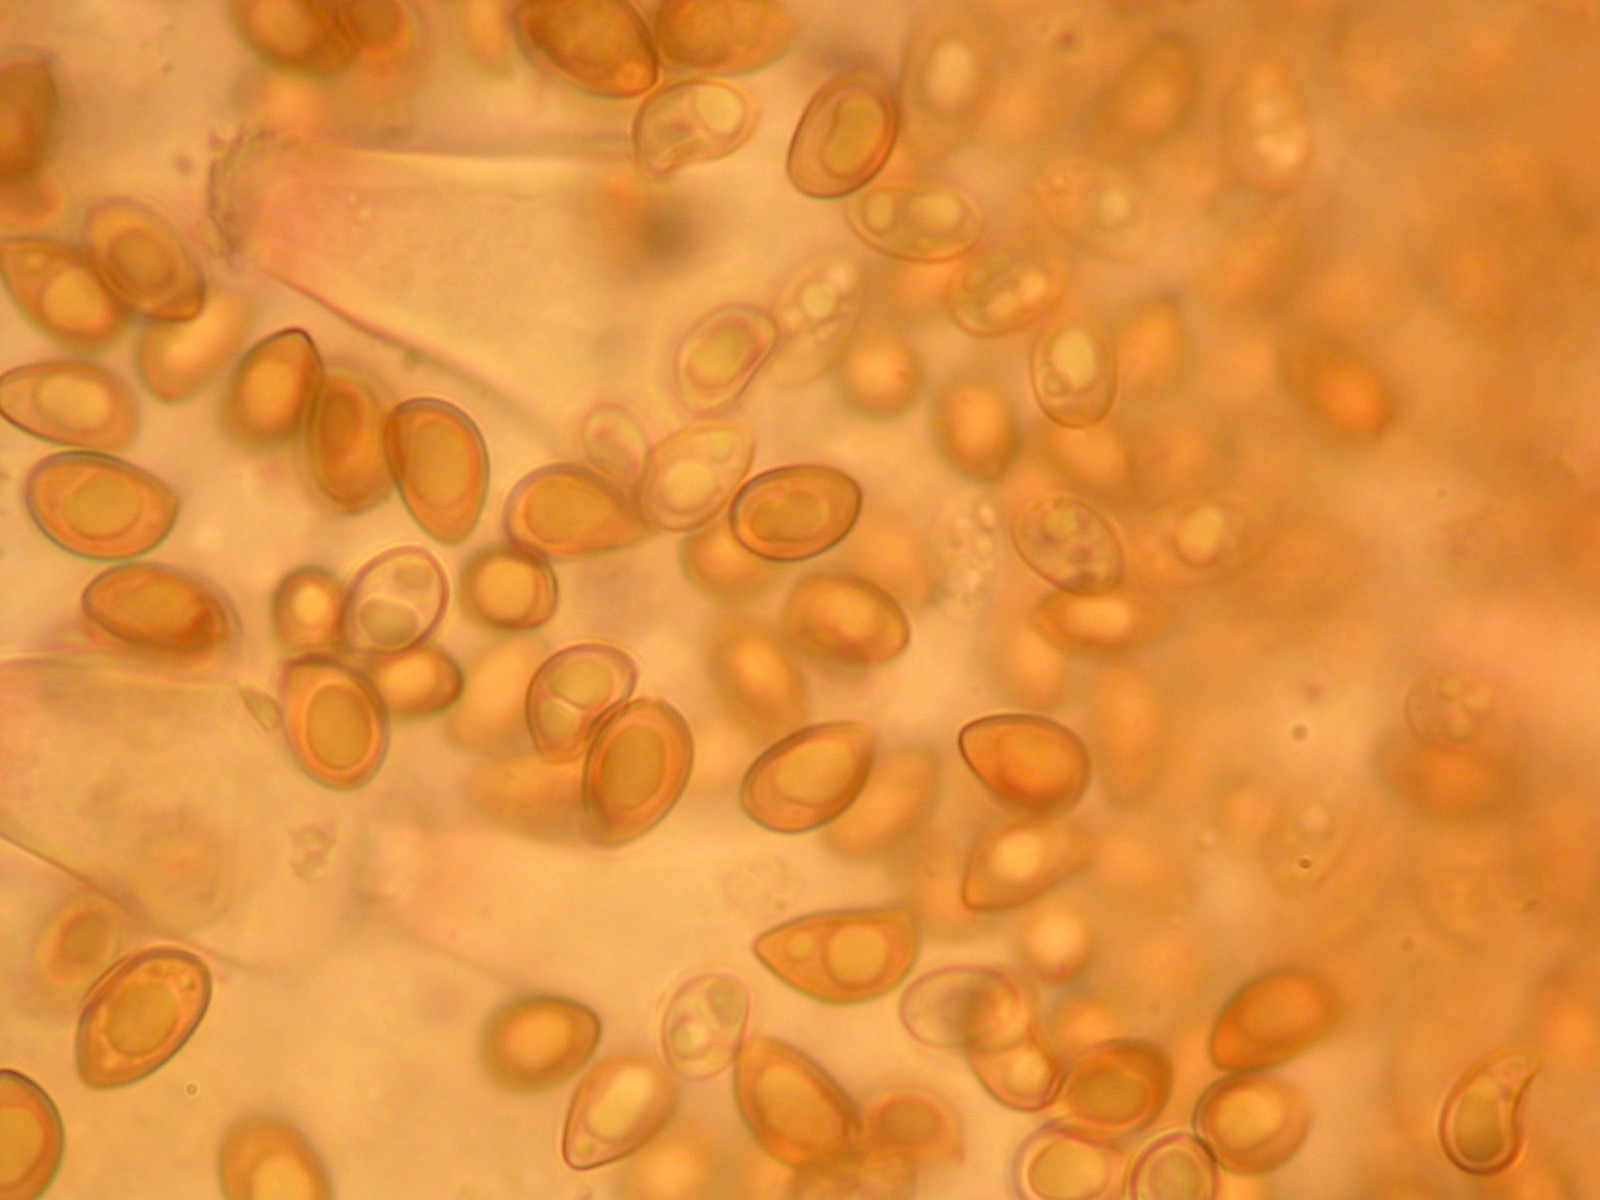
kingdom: Fungi
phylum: Basidiomycota
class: Agaricomycetes
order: Agaricales
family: Inocybaceae
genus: Inocybe
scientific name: Inocybe
